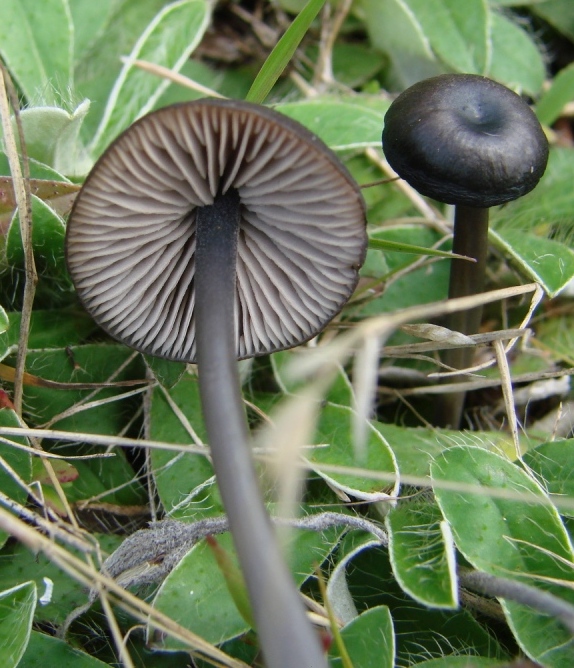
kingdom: Fungi
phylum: Basidiomycota
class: Agaricomycetes
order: Agaricales
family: Entolomataceae
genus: Entoloma
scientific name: Entoloma
